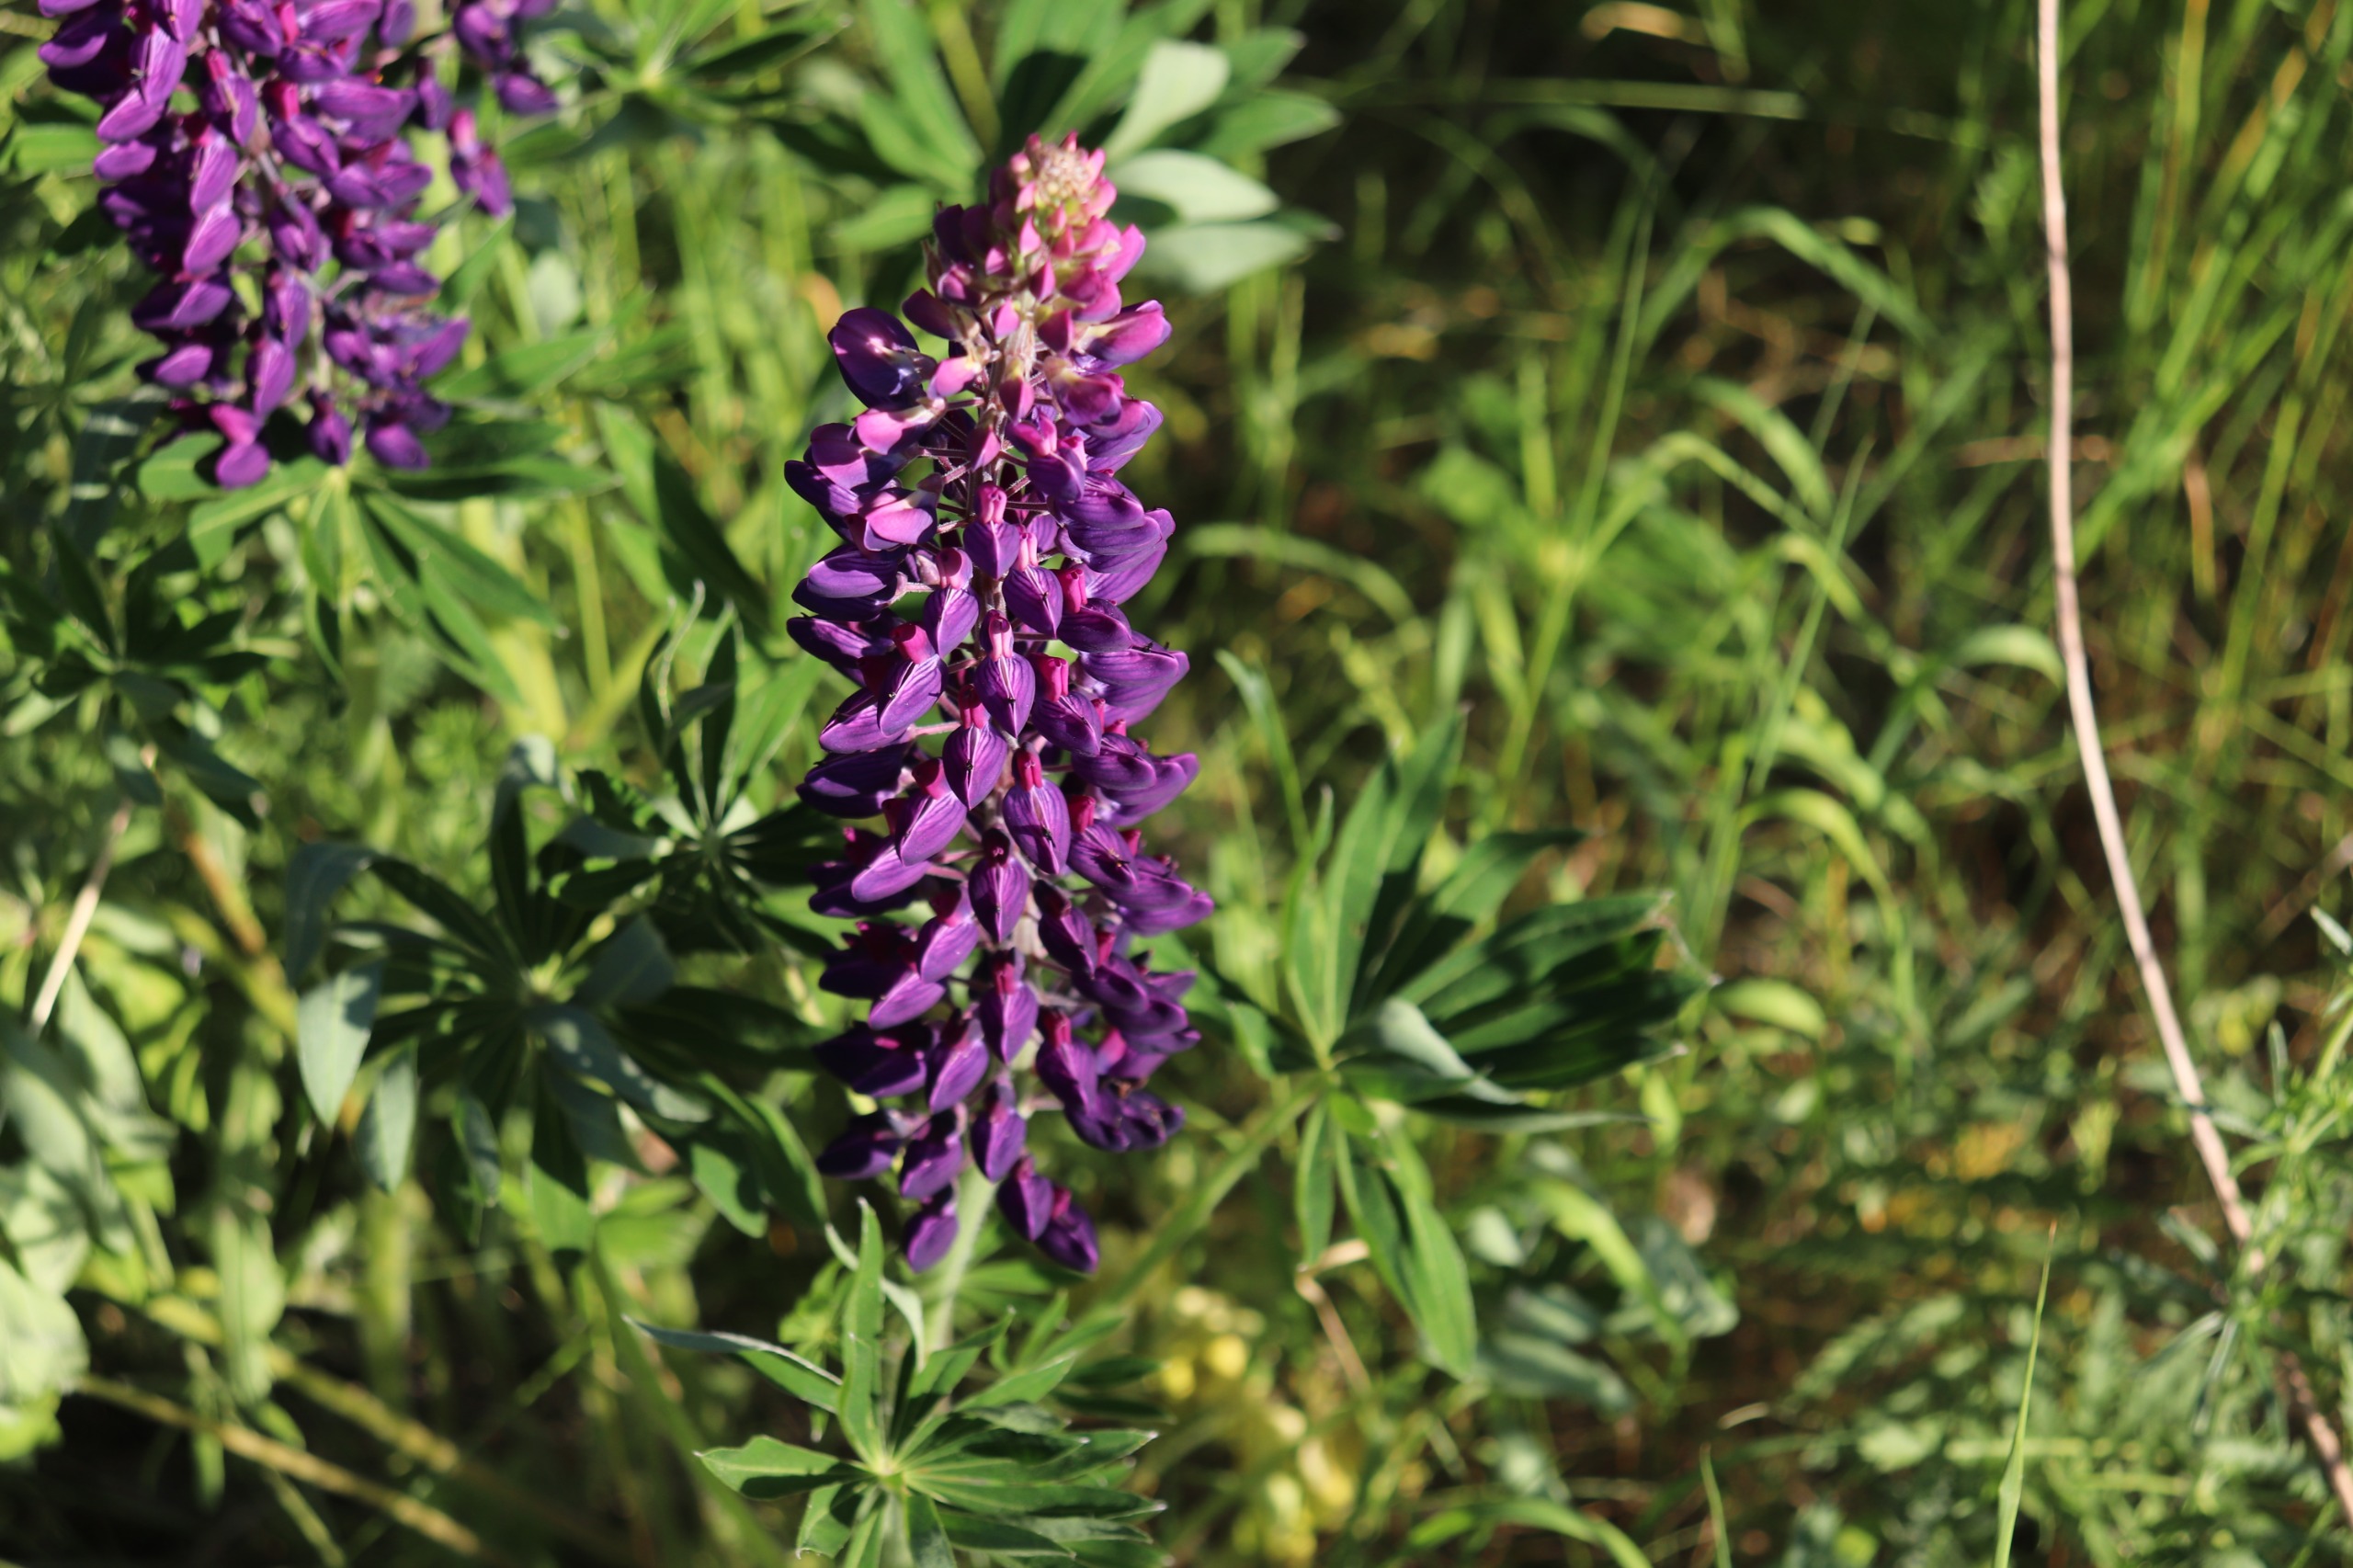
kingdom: Plantae
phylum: Tracheophyta
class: Magnoliopsida
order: Fabales
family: Fabaceae
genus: Lupinus
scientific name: Lupinus polyphyllus
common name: Mangebladet lupin
